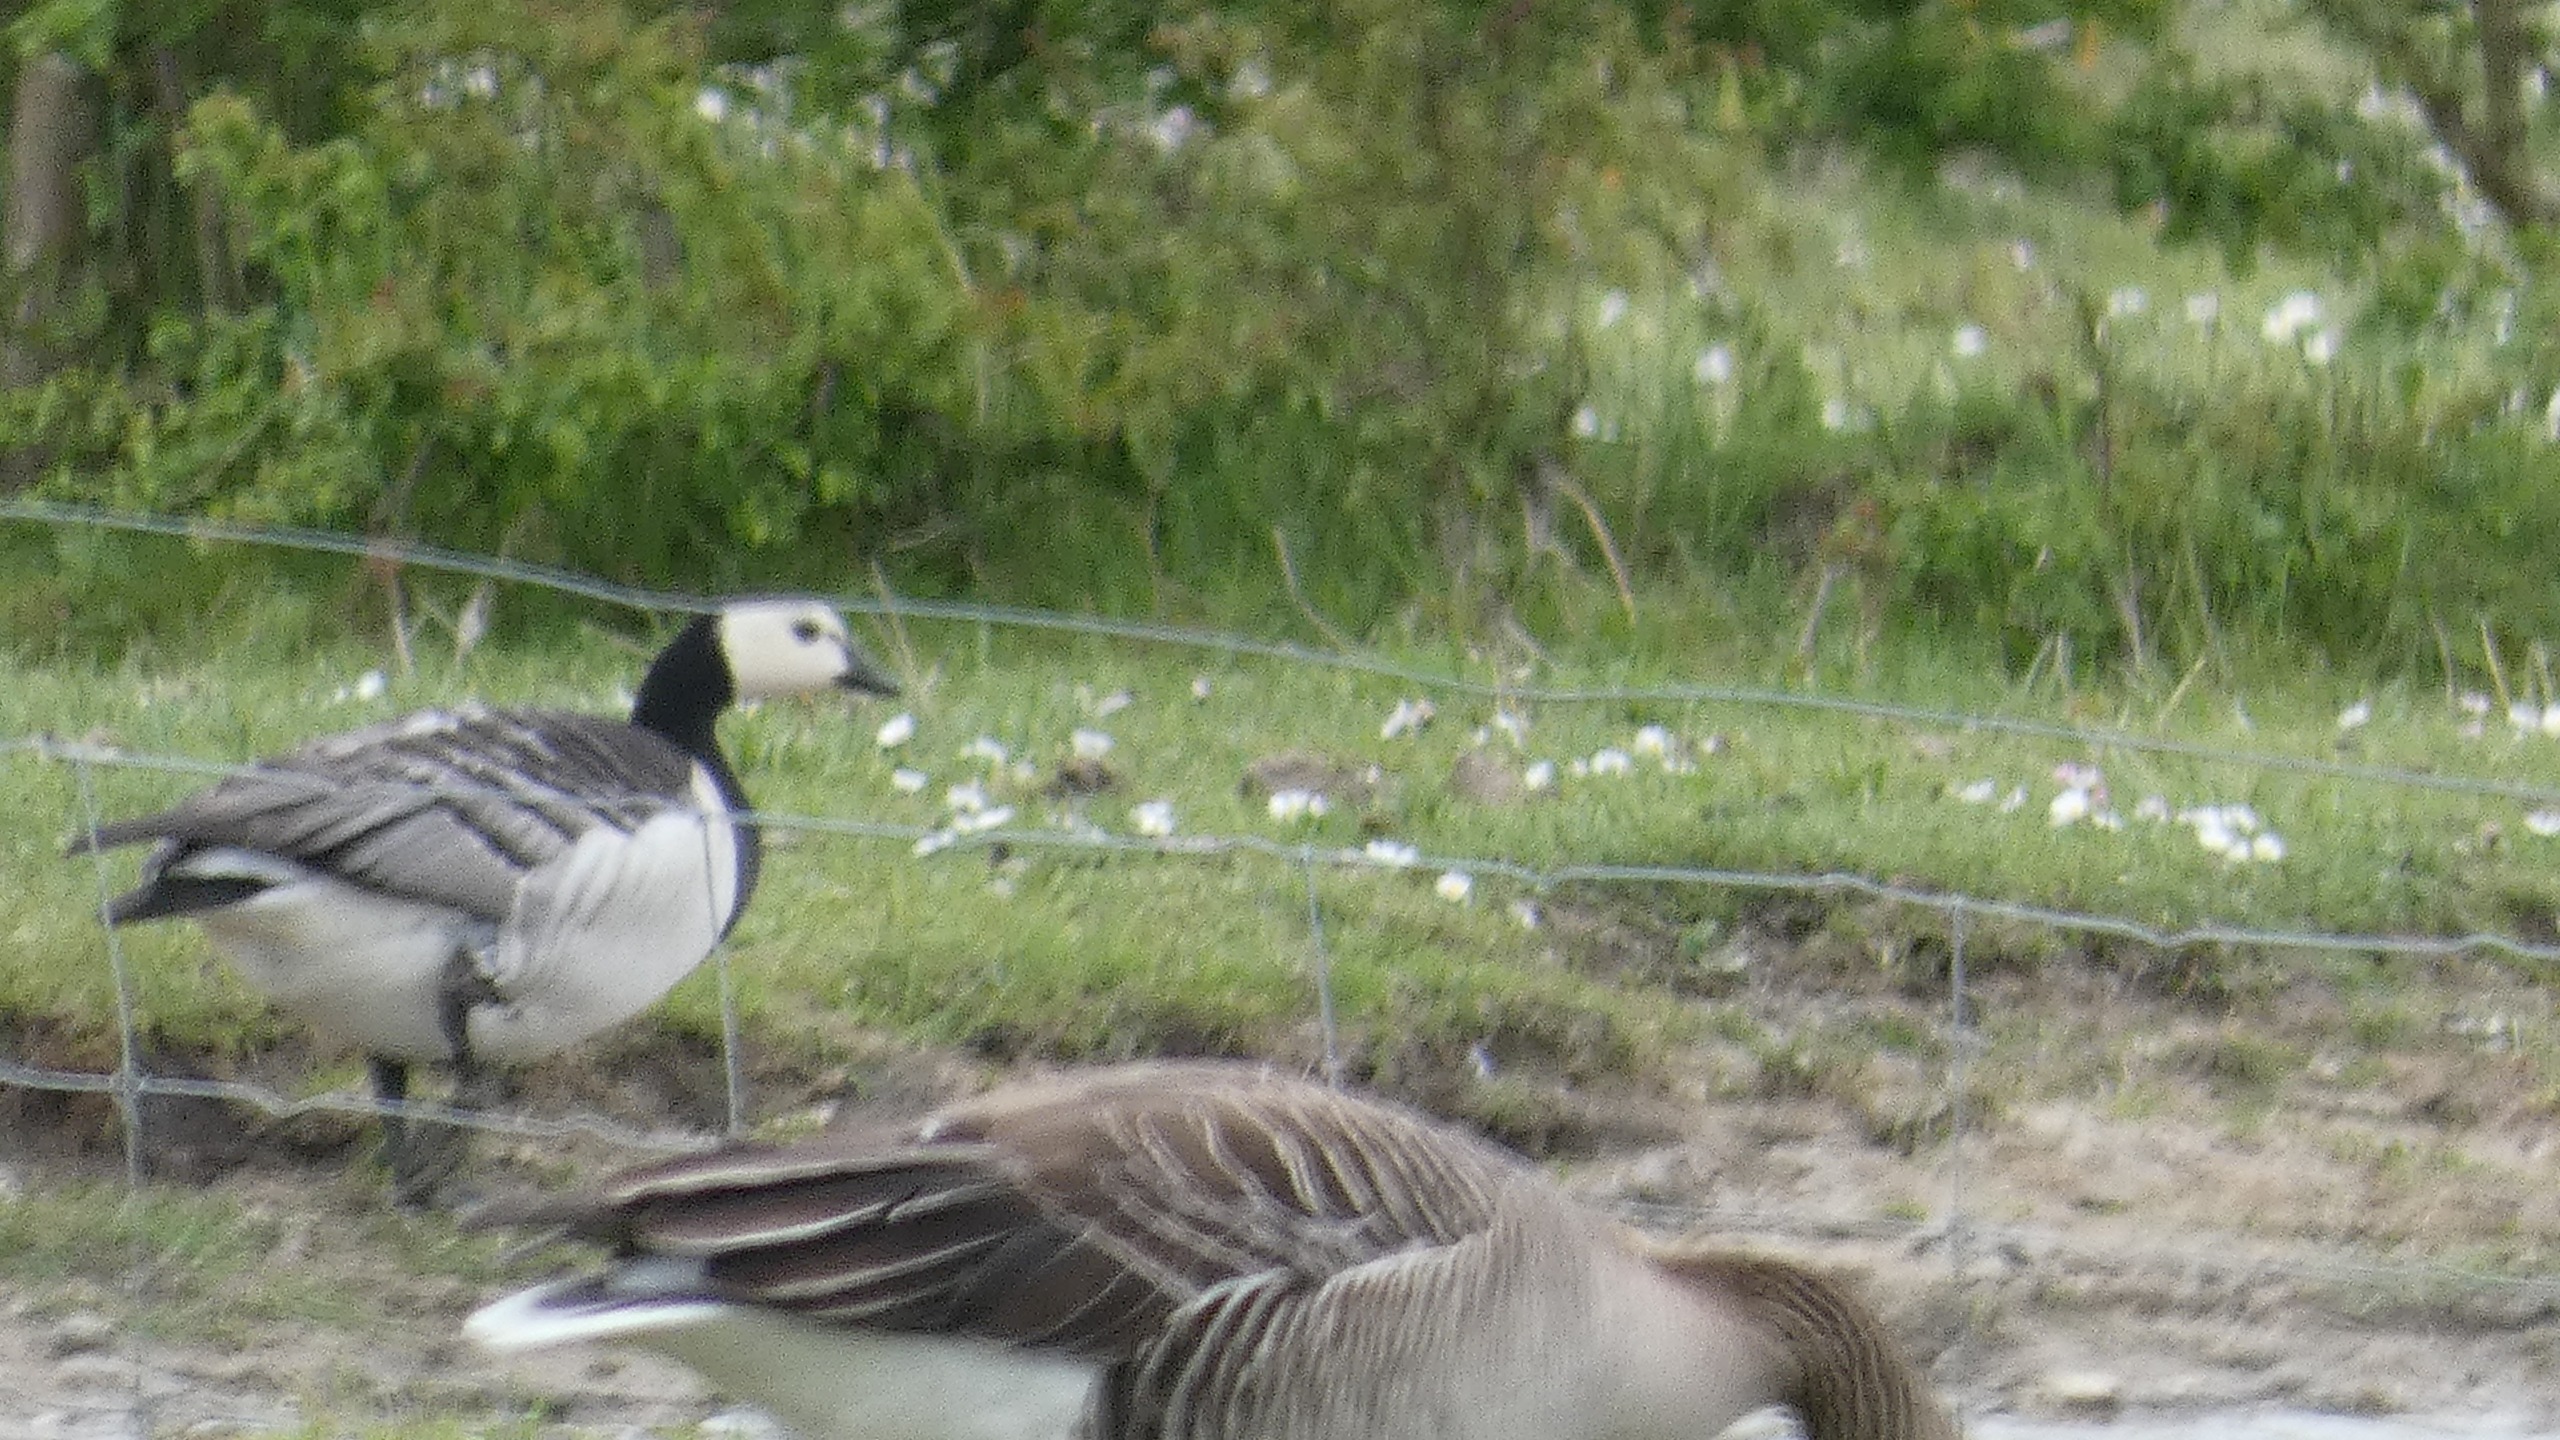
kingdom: Animalia
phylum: Chordata
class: Aves
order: Anseriformes
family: Anatidae
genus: Branta
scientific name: Branta leucopsis
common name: Bramgås
